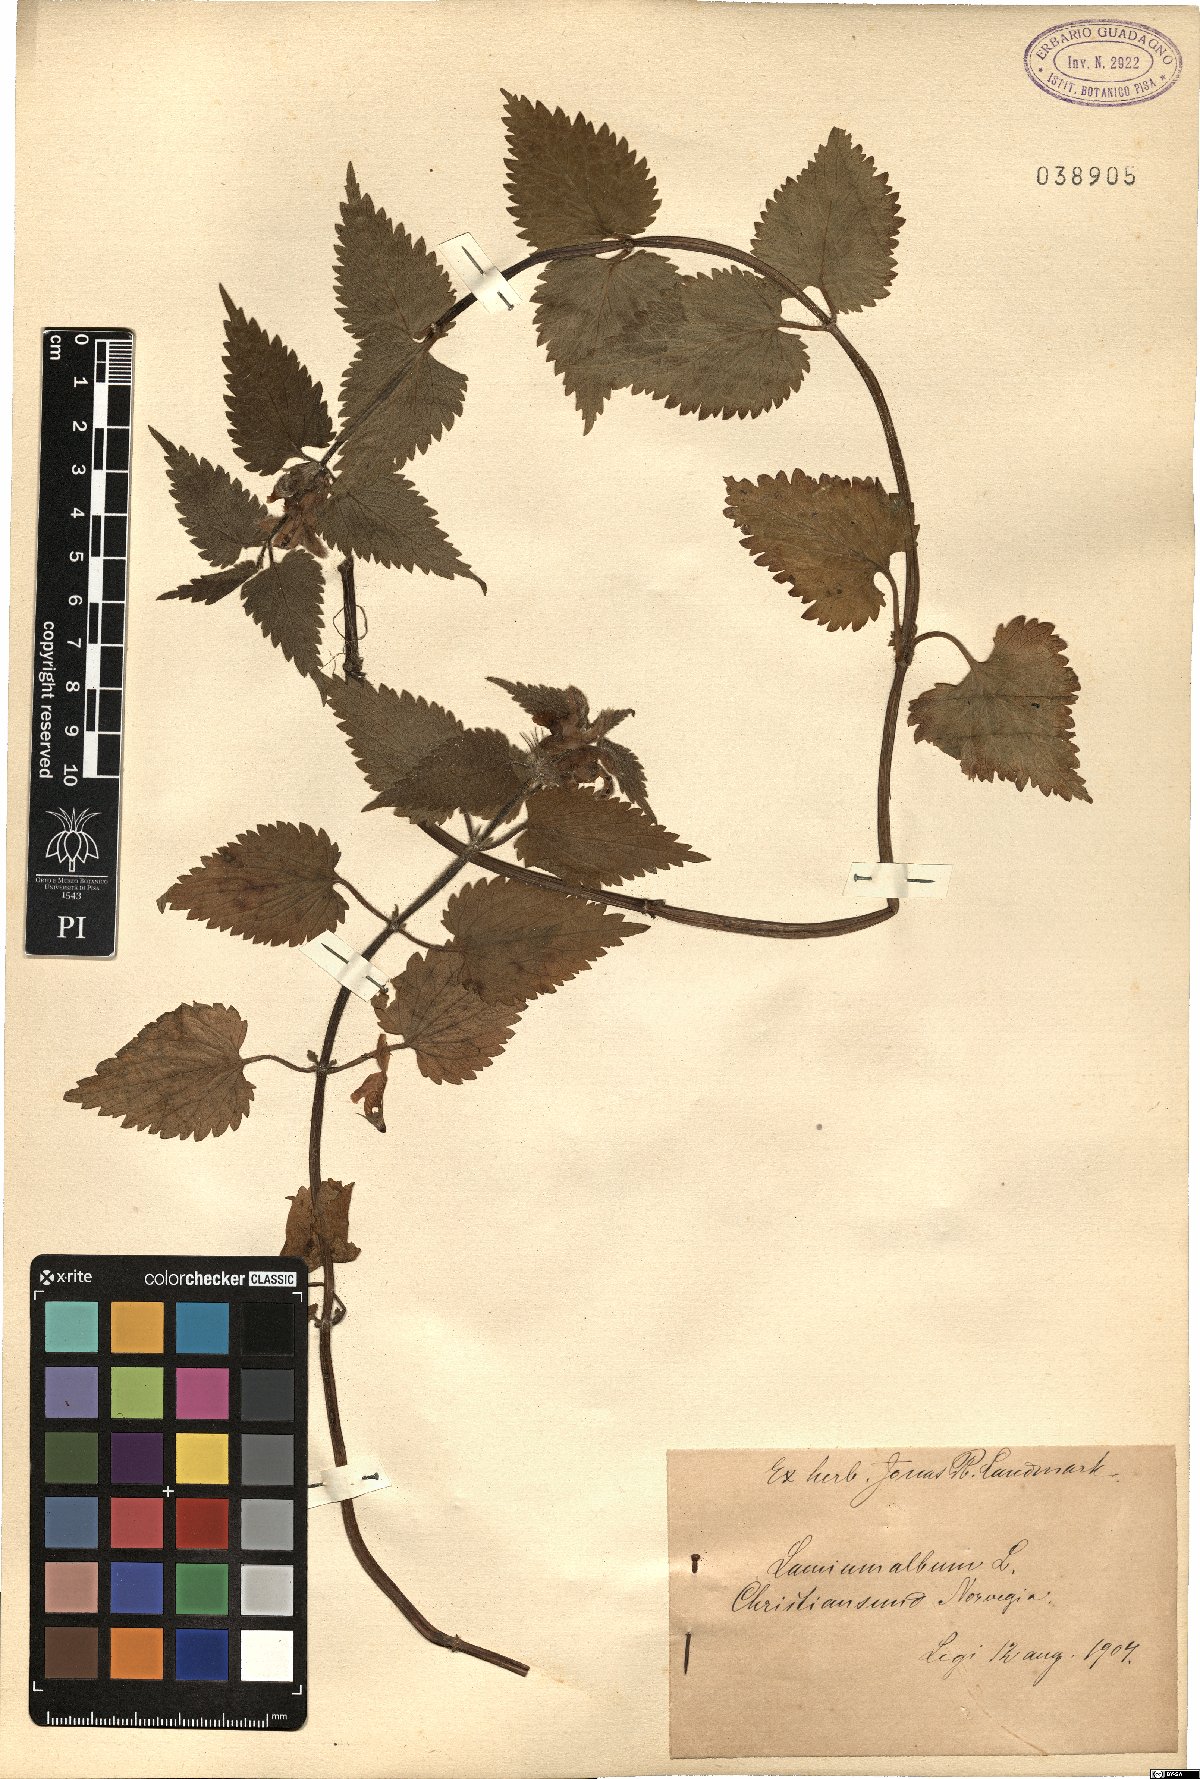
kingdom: Plantae
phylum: Tracheophyta
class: Magnoliopsida
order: Lamiales
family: Lamiaceae
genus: Lamium
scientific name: Lamium album
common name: White dead-nettle
